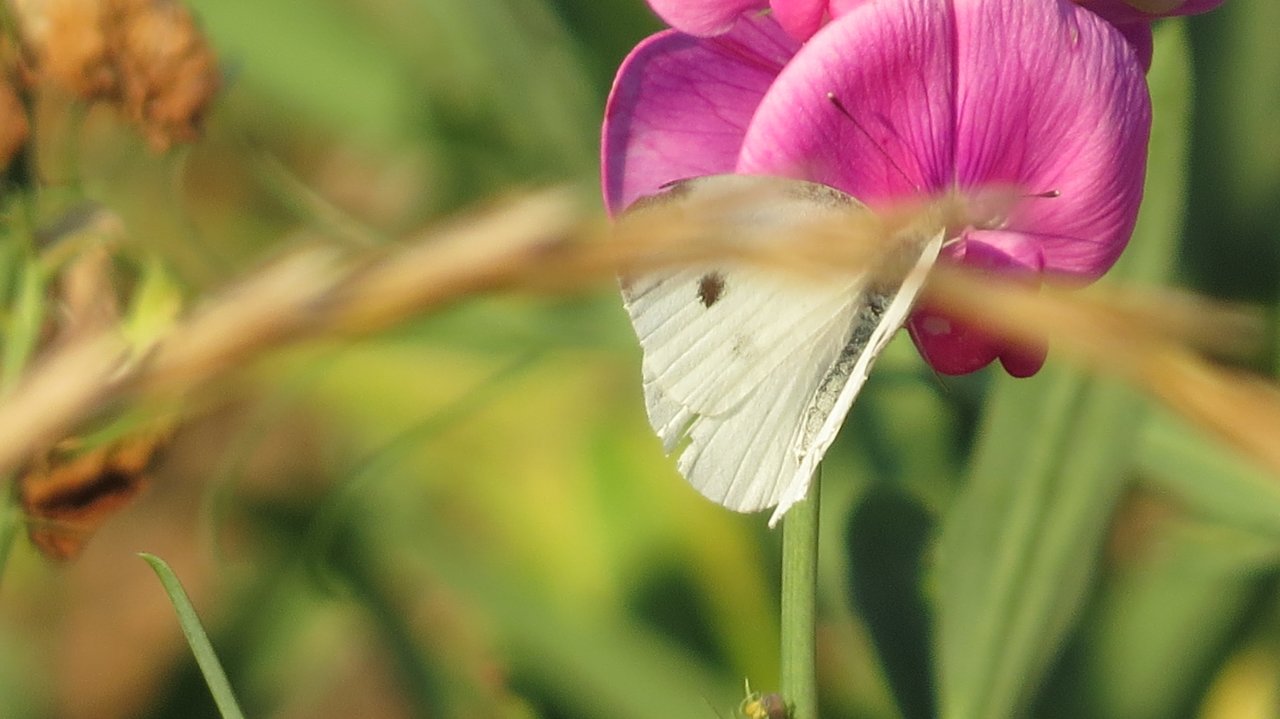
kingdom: Animalia
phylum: Arthropoda
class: Insecta
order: Lepidoptera
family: Pieridae
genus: Pieris
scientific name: Pieris rapae
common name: Cabbage White
